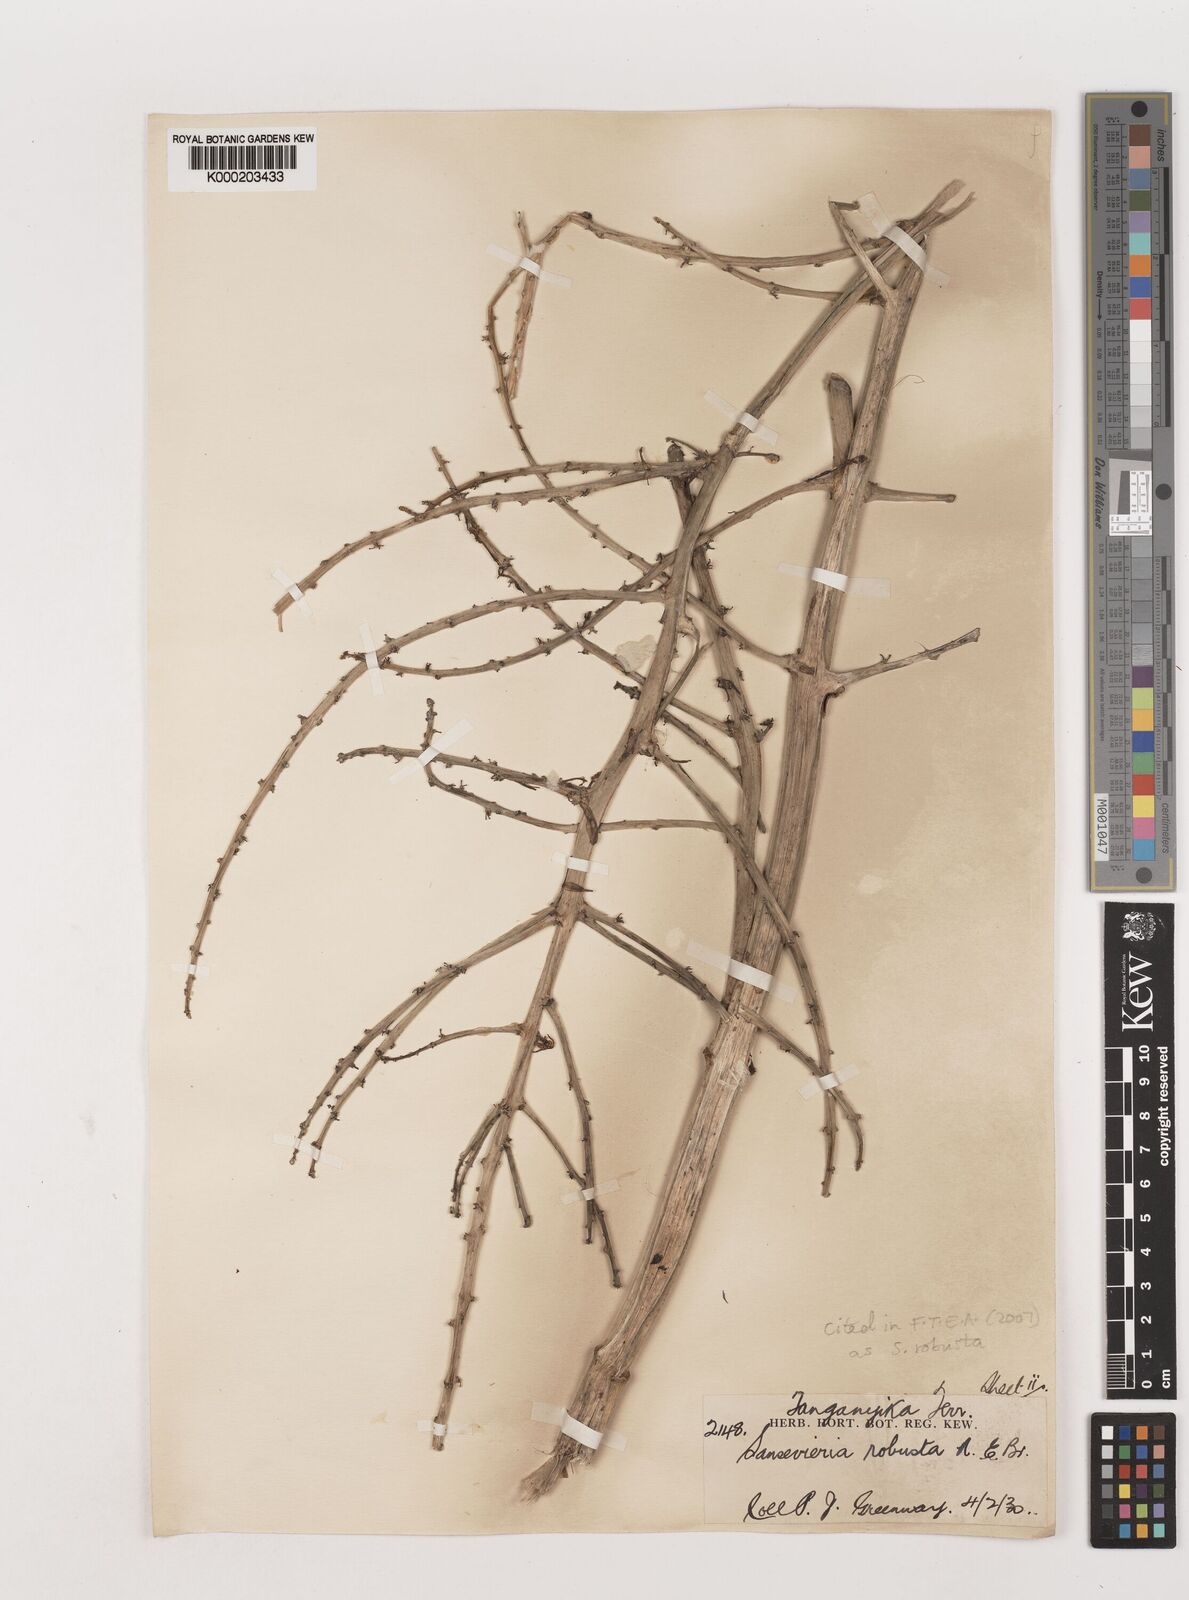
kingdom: Plantae
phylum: Tracheophyta
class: Liliopsida
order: Asparagales
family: Asparagaceae
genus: Dracaena
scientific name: Dracaena perrotii
